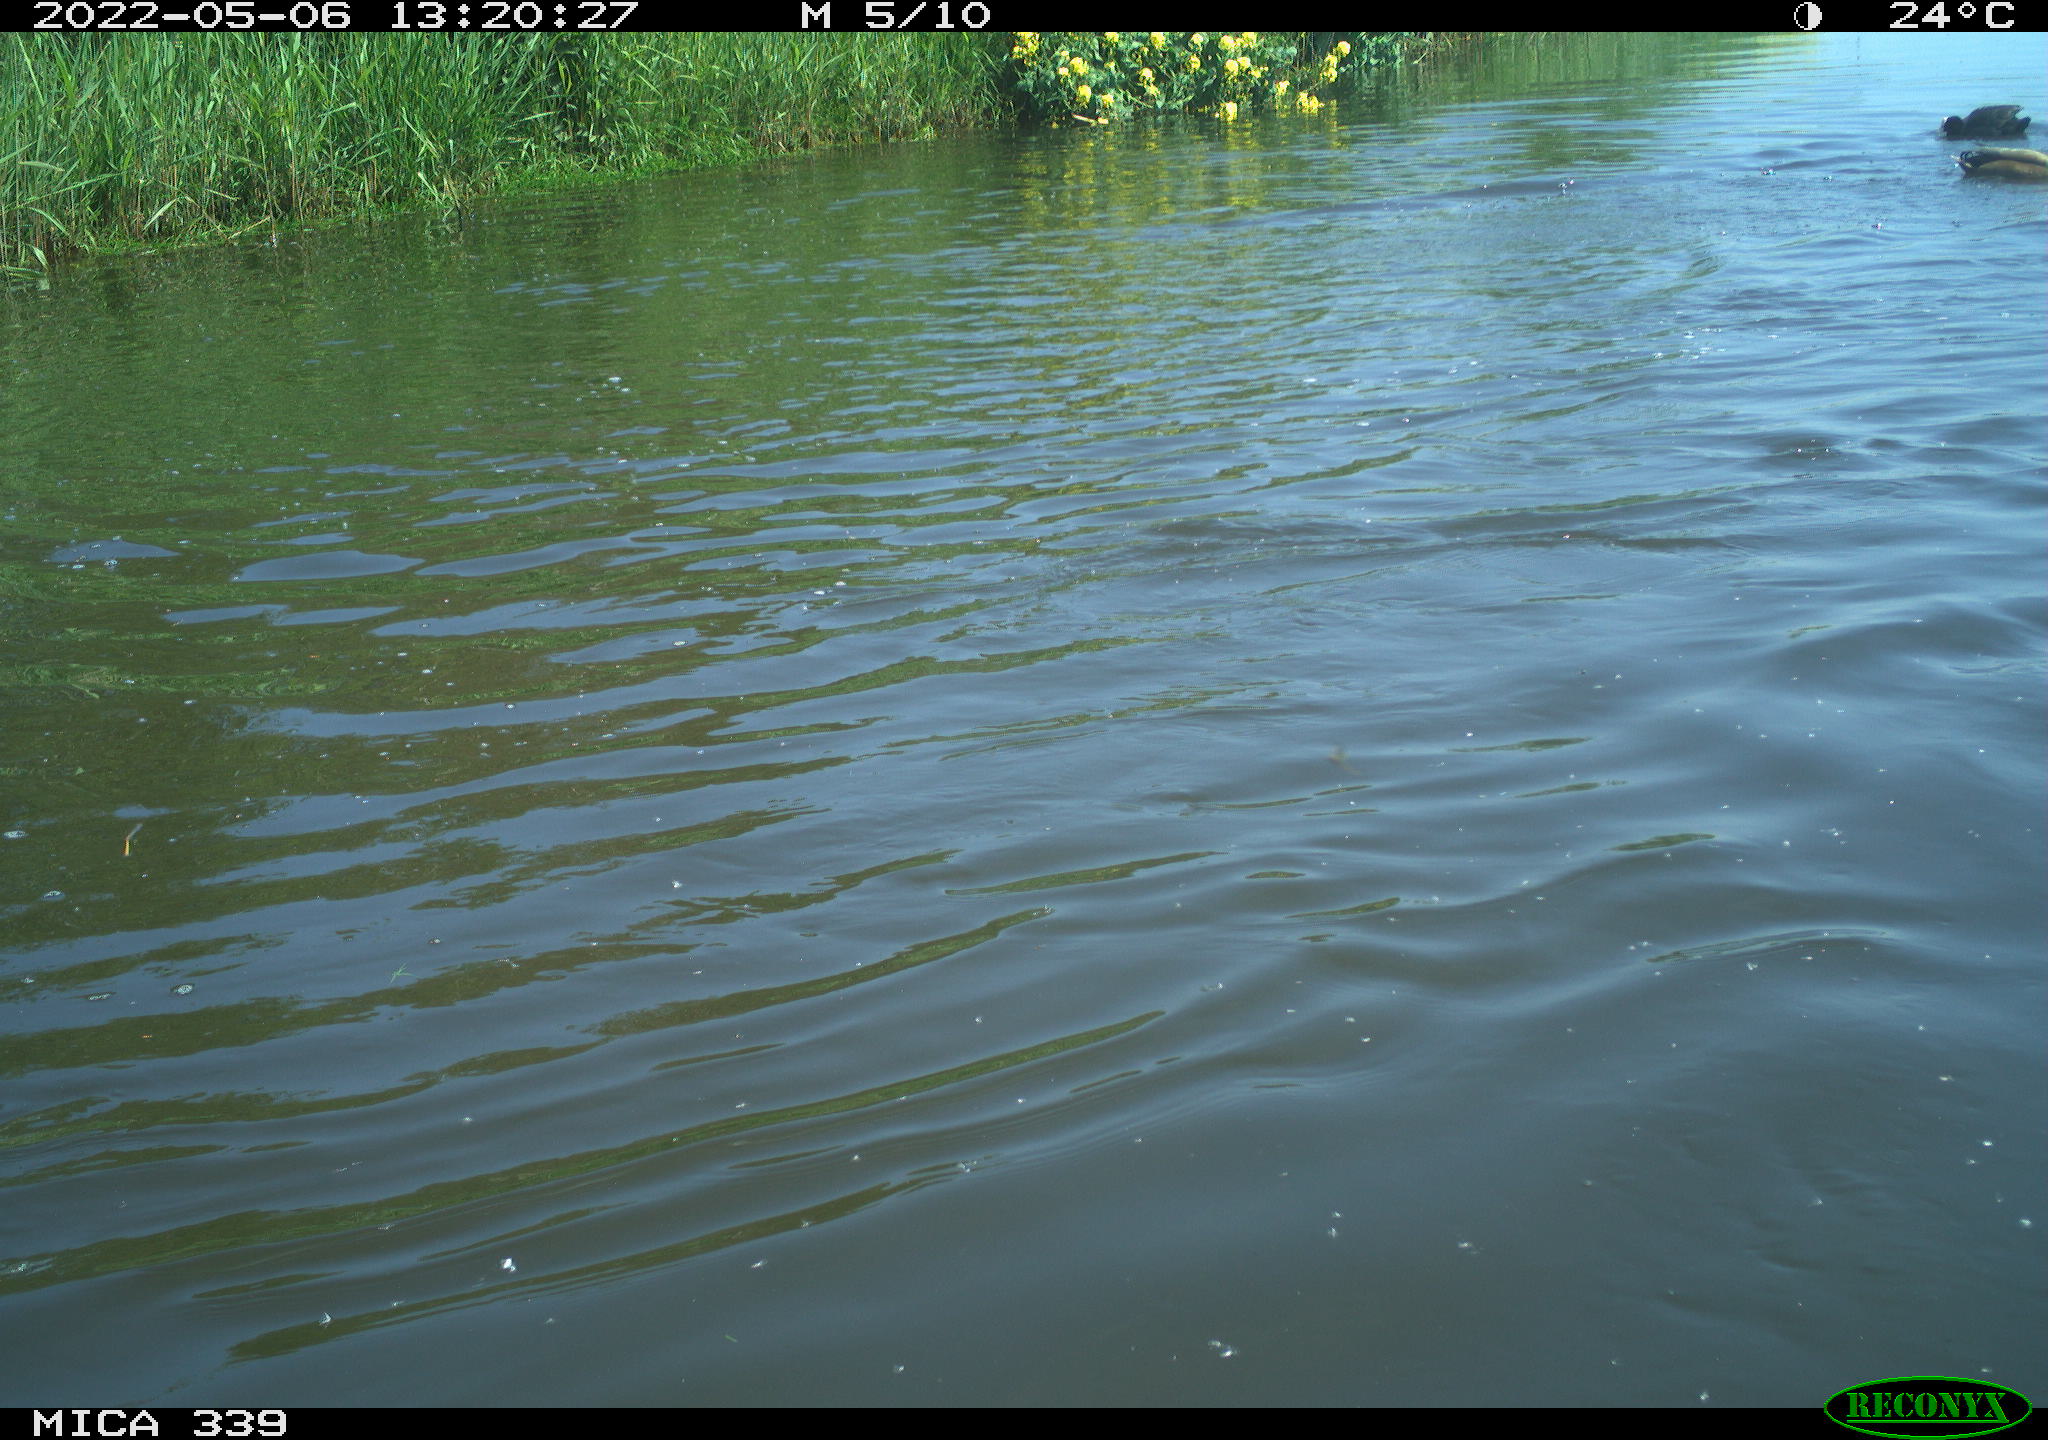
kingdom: Animalia
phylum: Chordata
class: Aves
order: Gruiformes
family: Rallidae
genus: Fulica
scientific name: Fulica atra
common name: Eurasian coot
